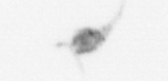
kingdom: Animalia
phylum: Arthropoda
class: Copepoda
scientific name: Copepoda
